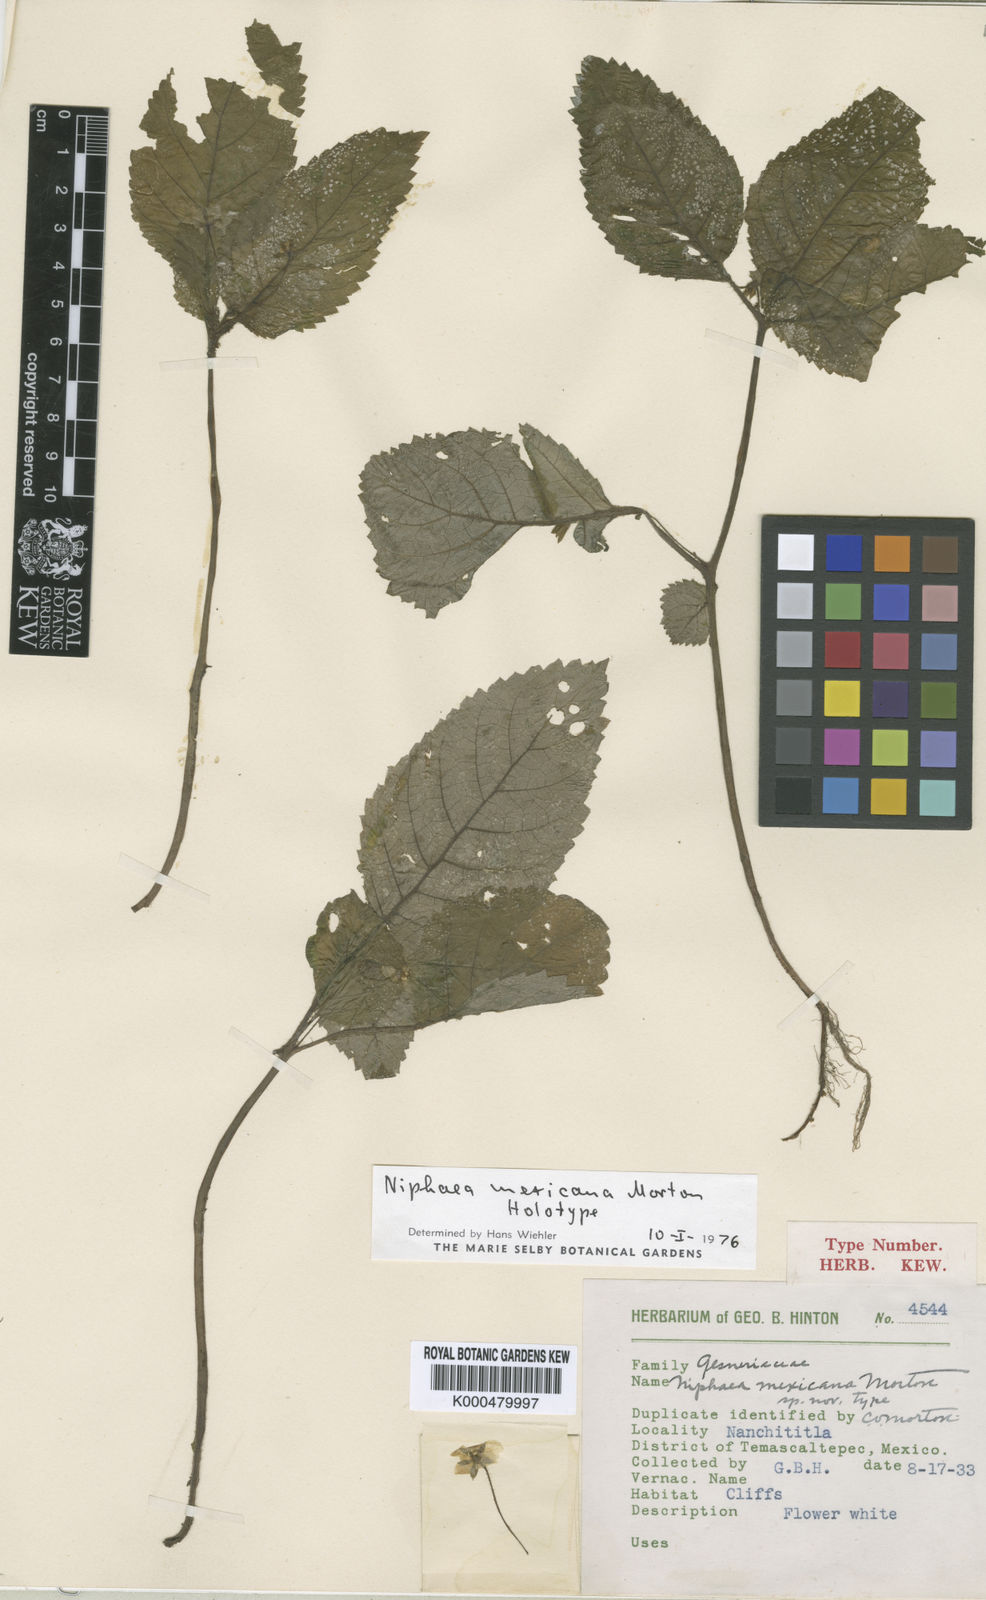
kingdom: Plantae
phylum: Tracheophyta
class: Magnoliopsida
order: Lamiales
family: Gesneriaceae
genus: Niphaea
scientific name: Niphaea mexicana
